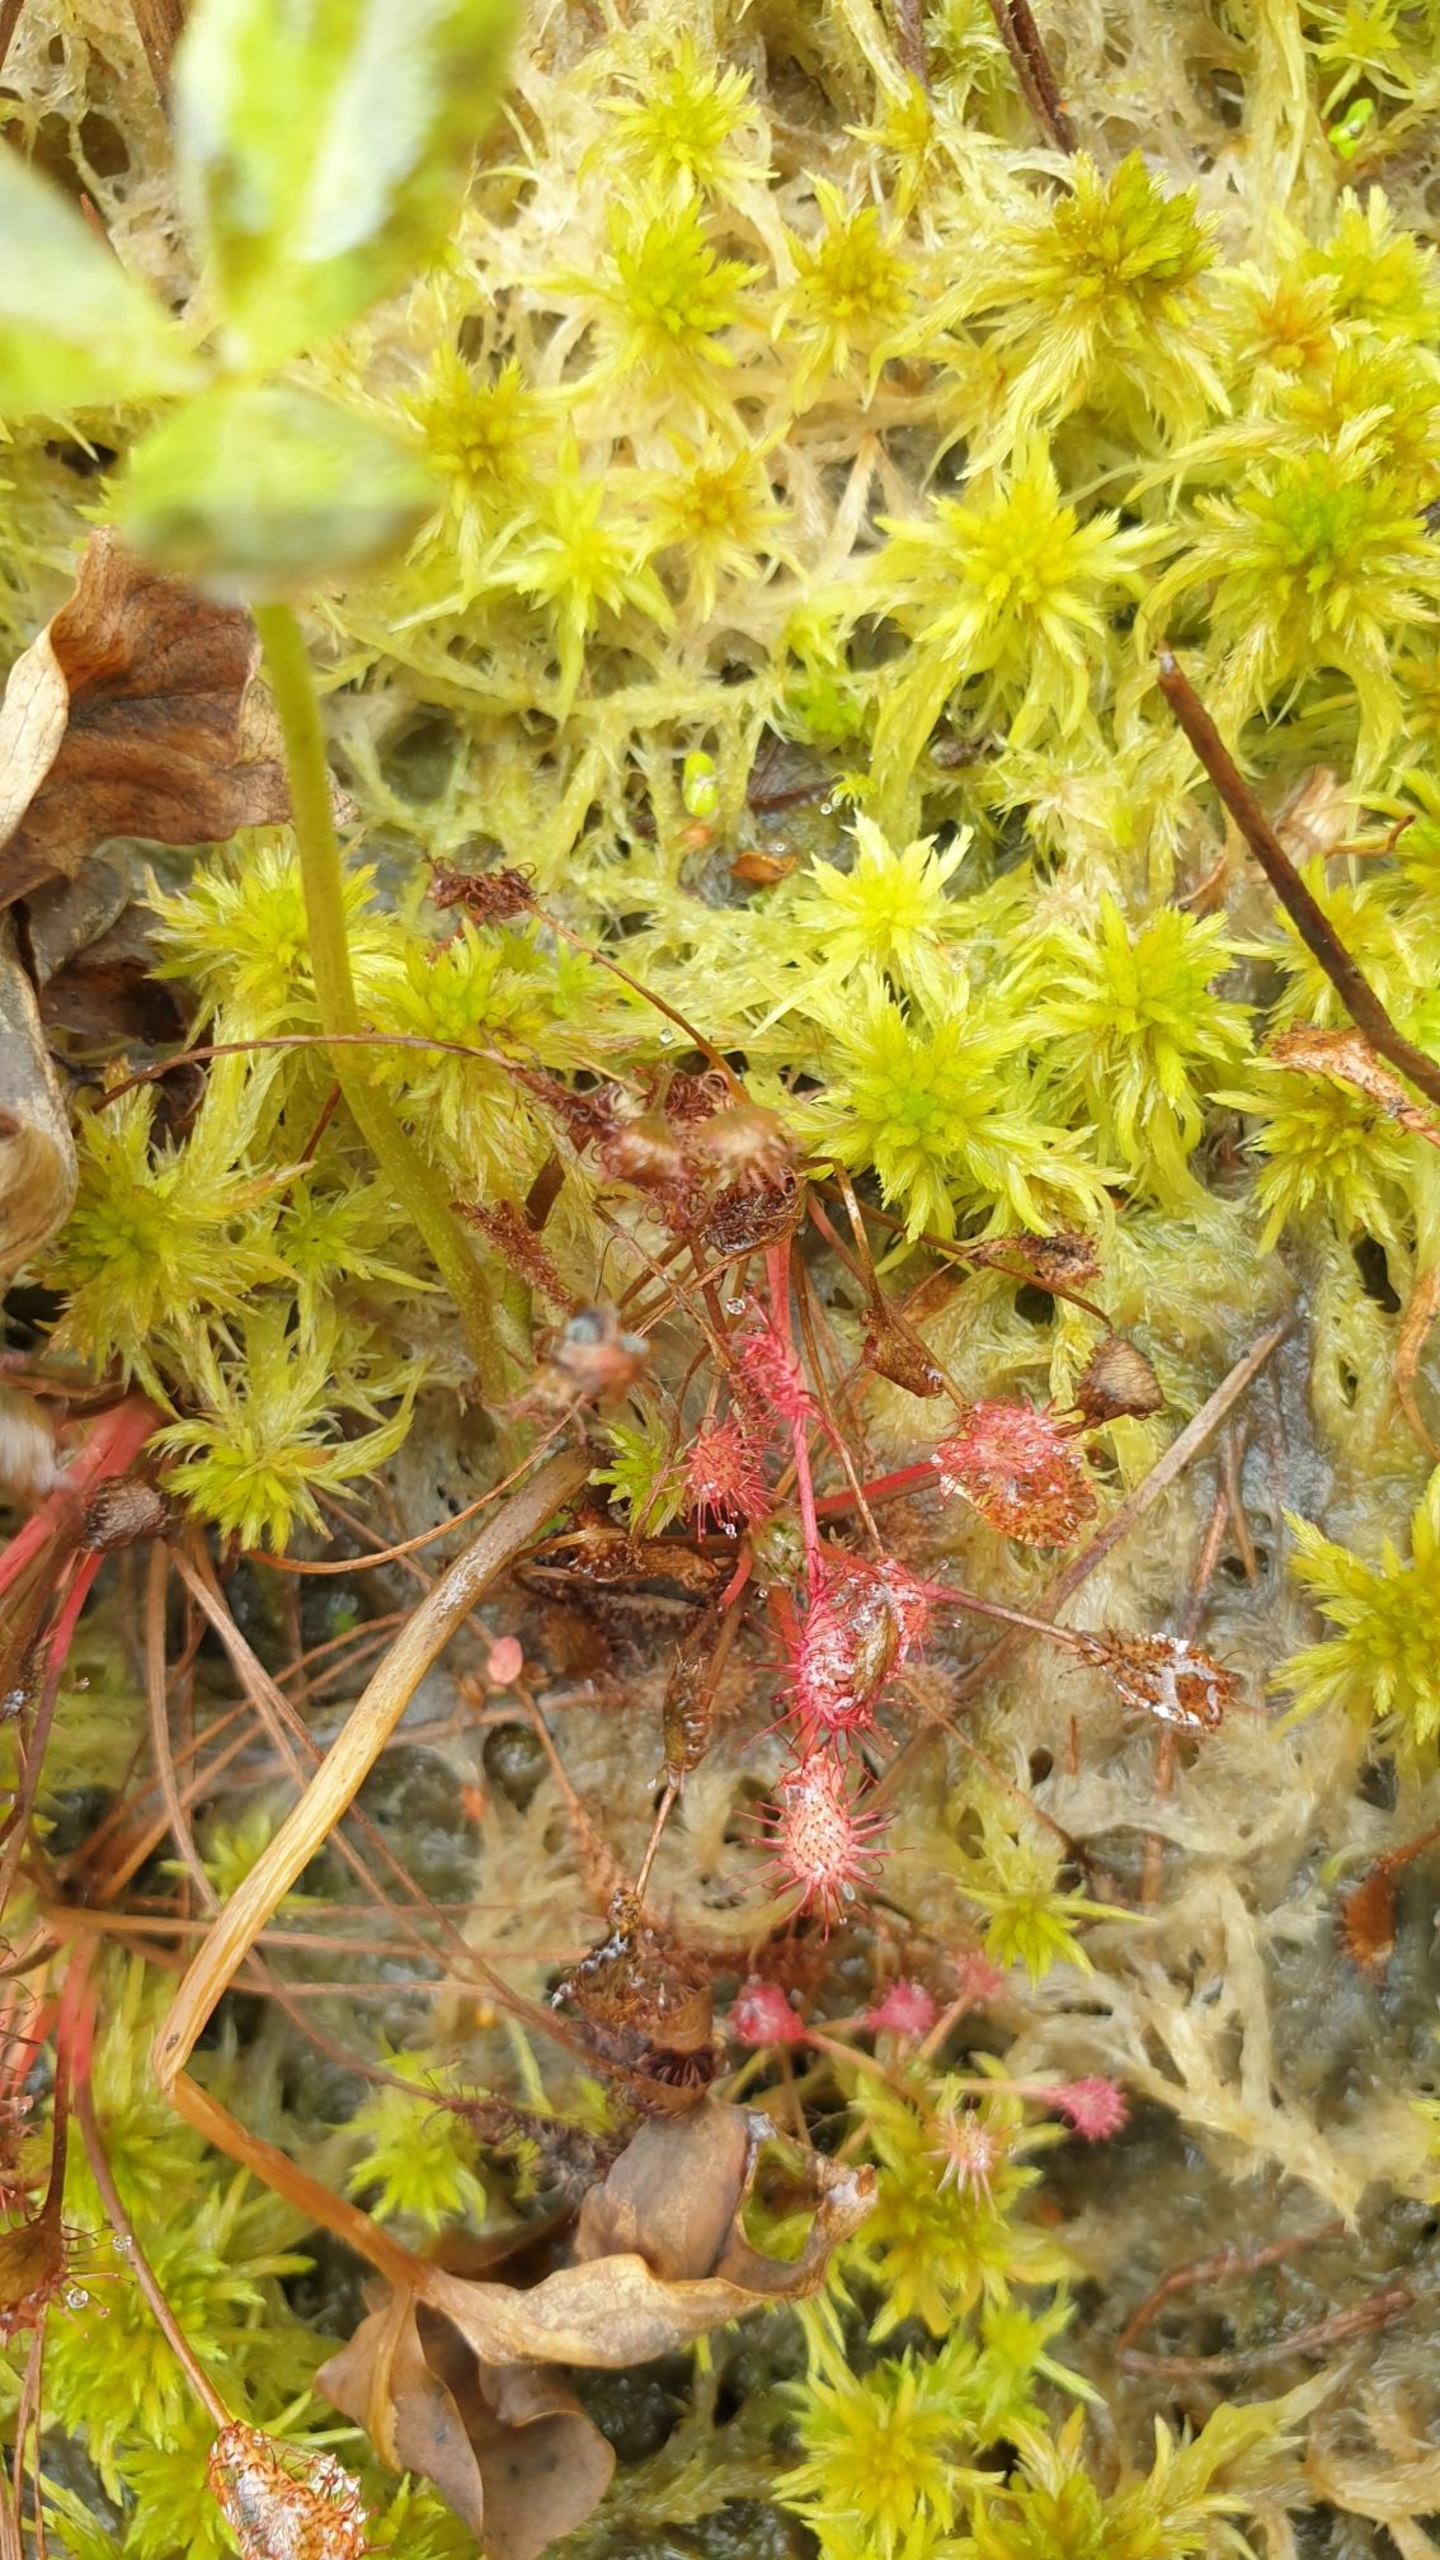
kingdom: Plantae
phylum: Tracheophyta
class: Magnoliopsida
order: Caryophyllales
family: Droseraceae
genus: Drosera
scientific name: Drosera intermedia
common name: Liden soldug
